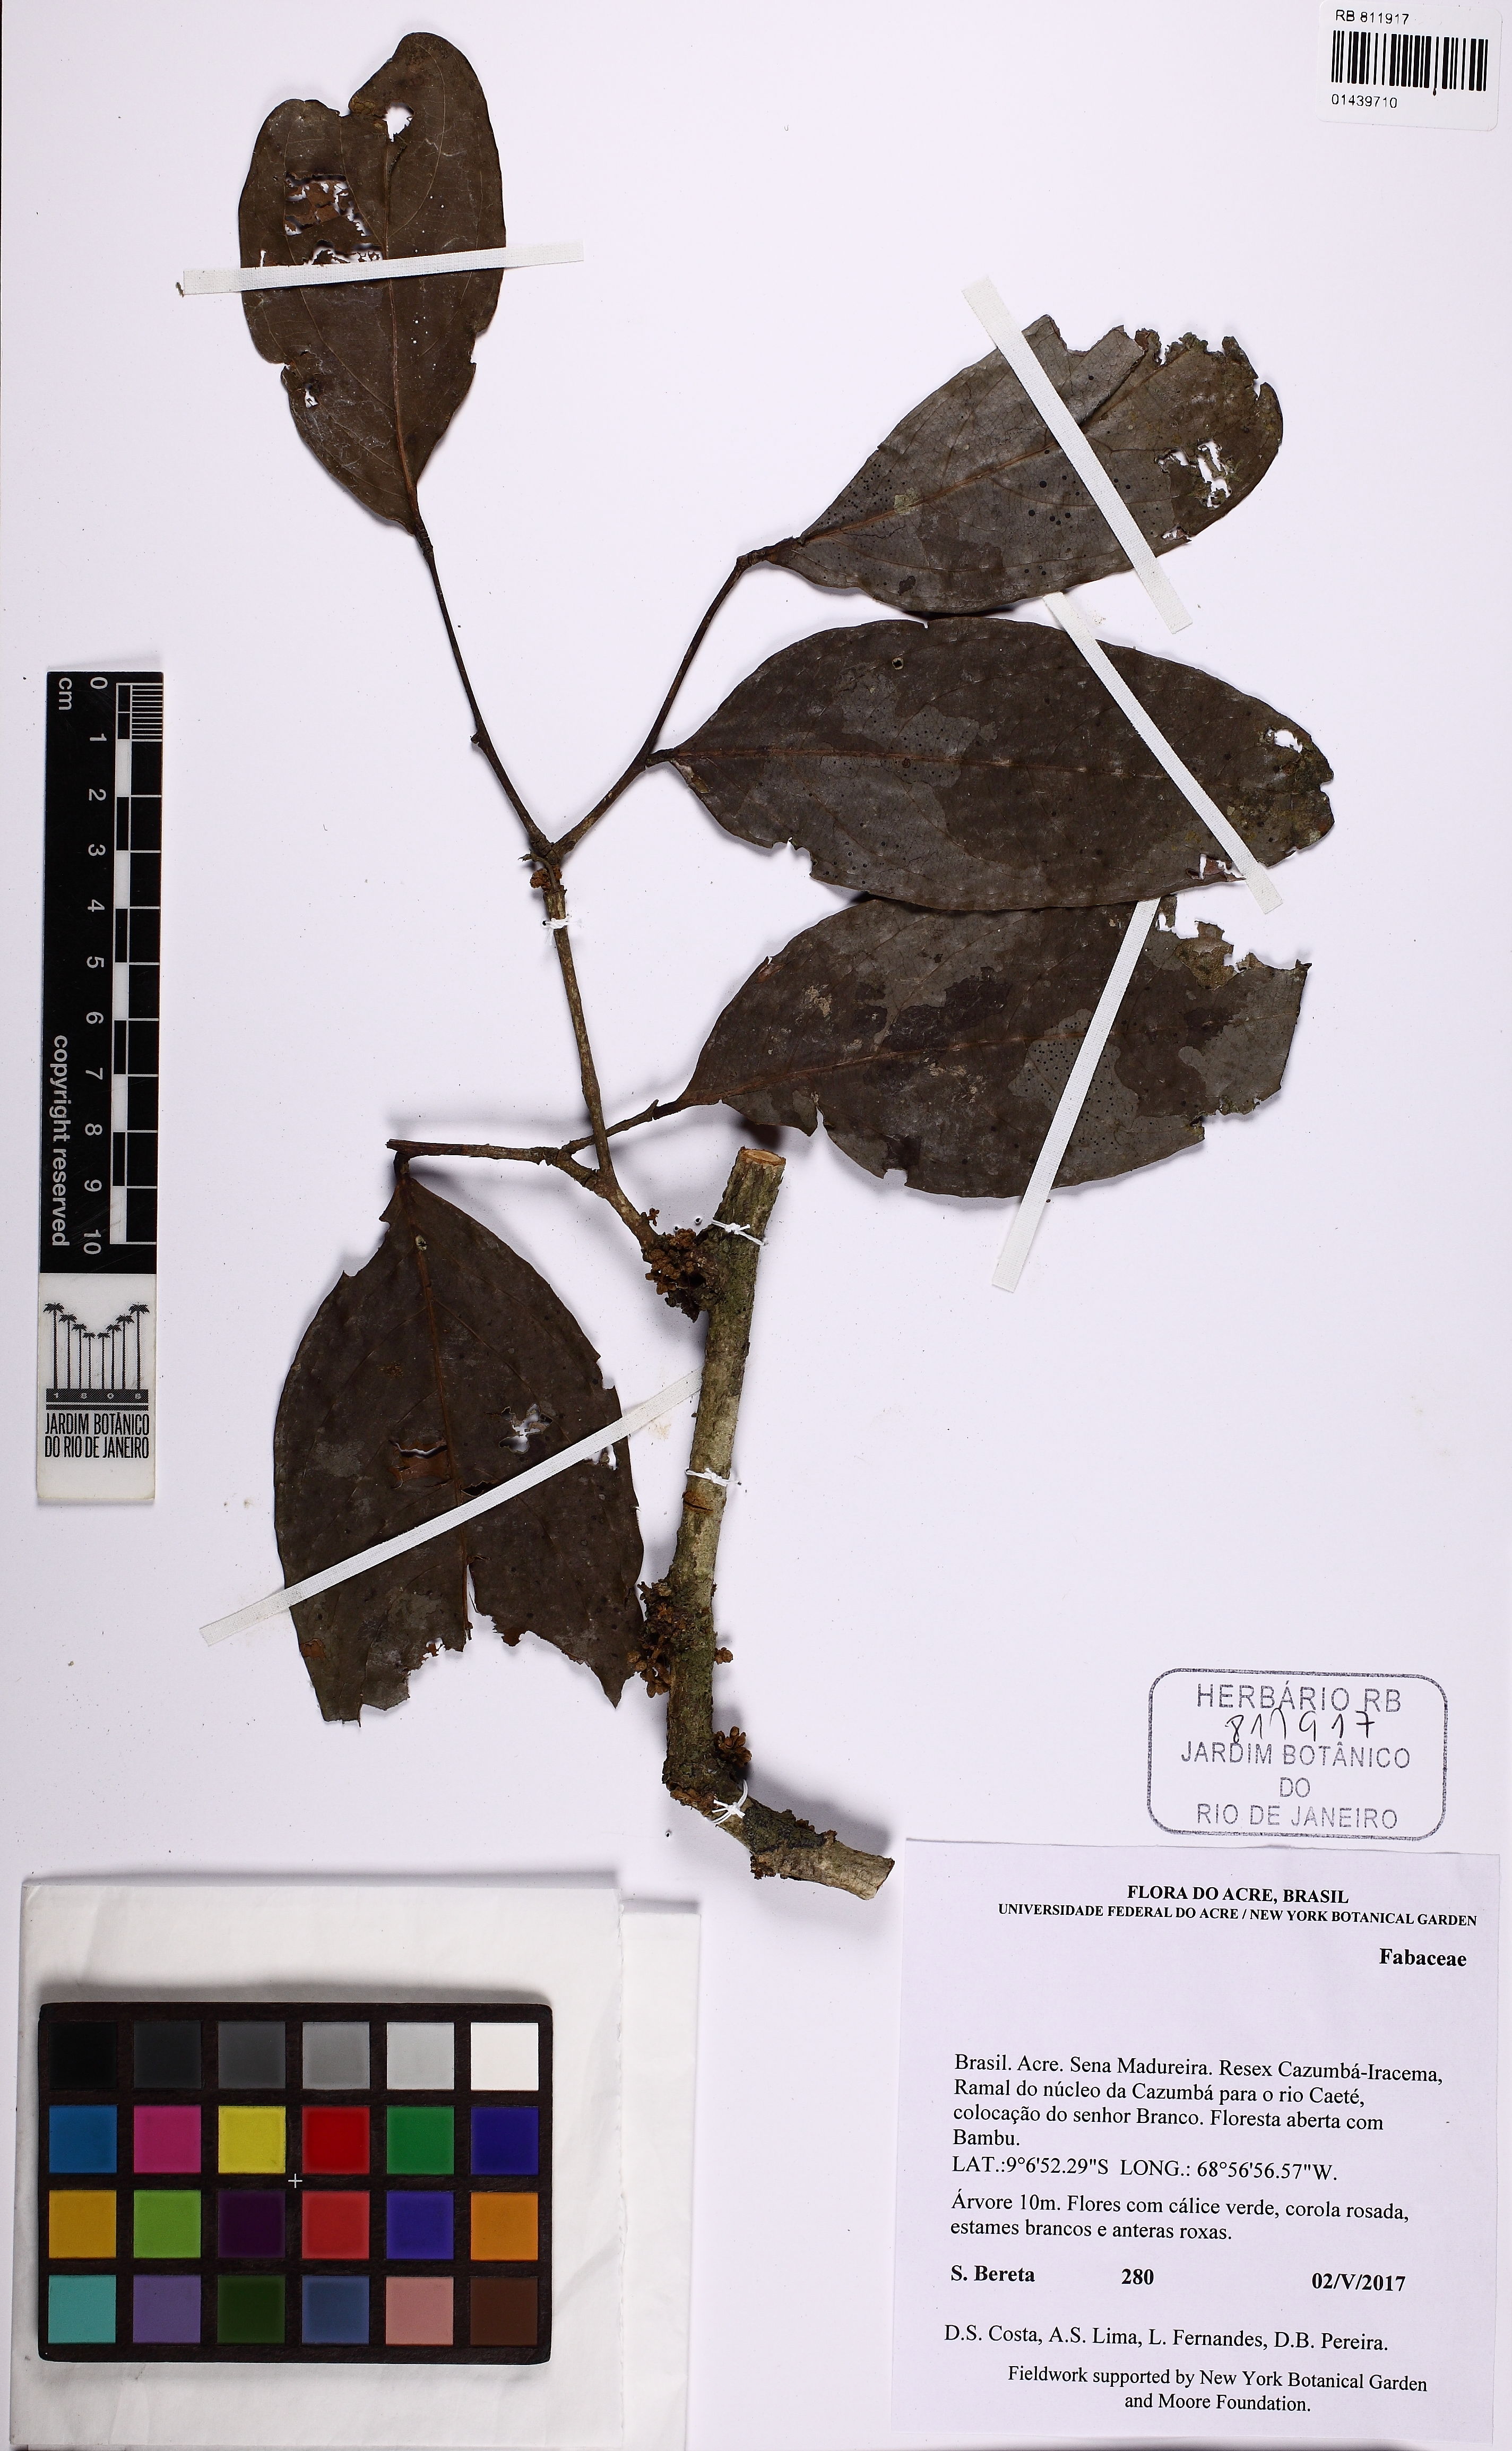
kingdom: Plantae
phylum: Tracheophyta
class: Magnoliopsida
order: Fabales
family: Fabaceae
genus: Zygia
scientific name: Zygia
